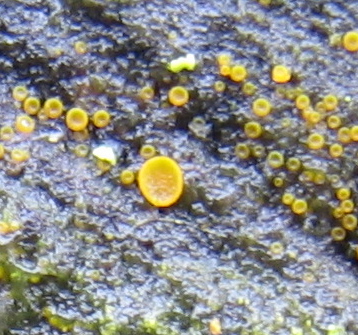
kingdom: Fungi
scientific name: Fungi
